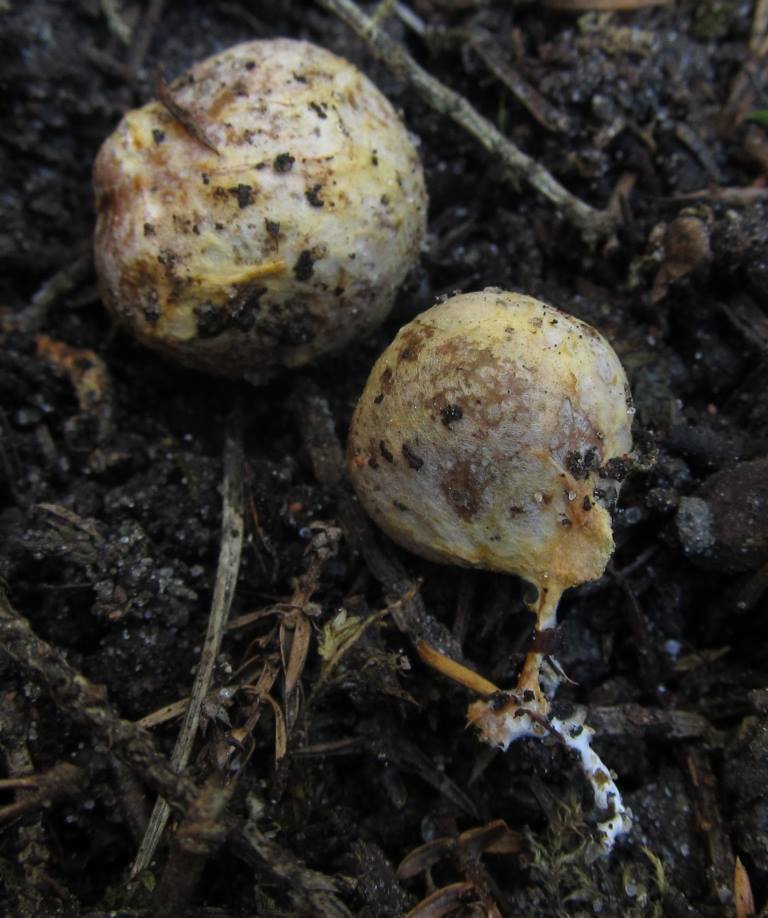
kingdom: Fungi
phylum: Basidiomycota
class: Agaricomycetes
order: Boletales
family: Rhizopogonaceae
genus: Rhizopogon
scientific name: Rhizopogon roseolus
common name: rødlig skægtrøffel
